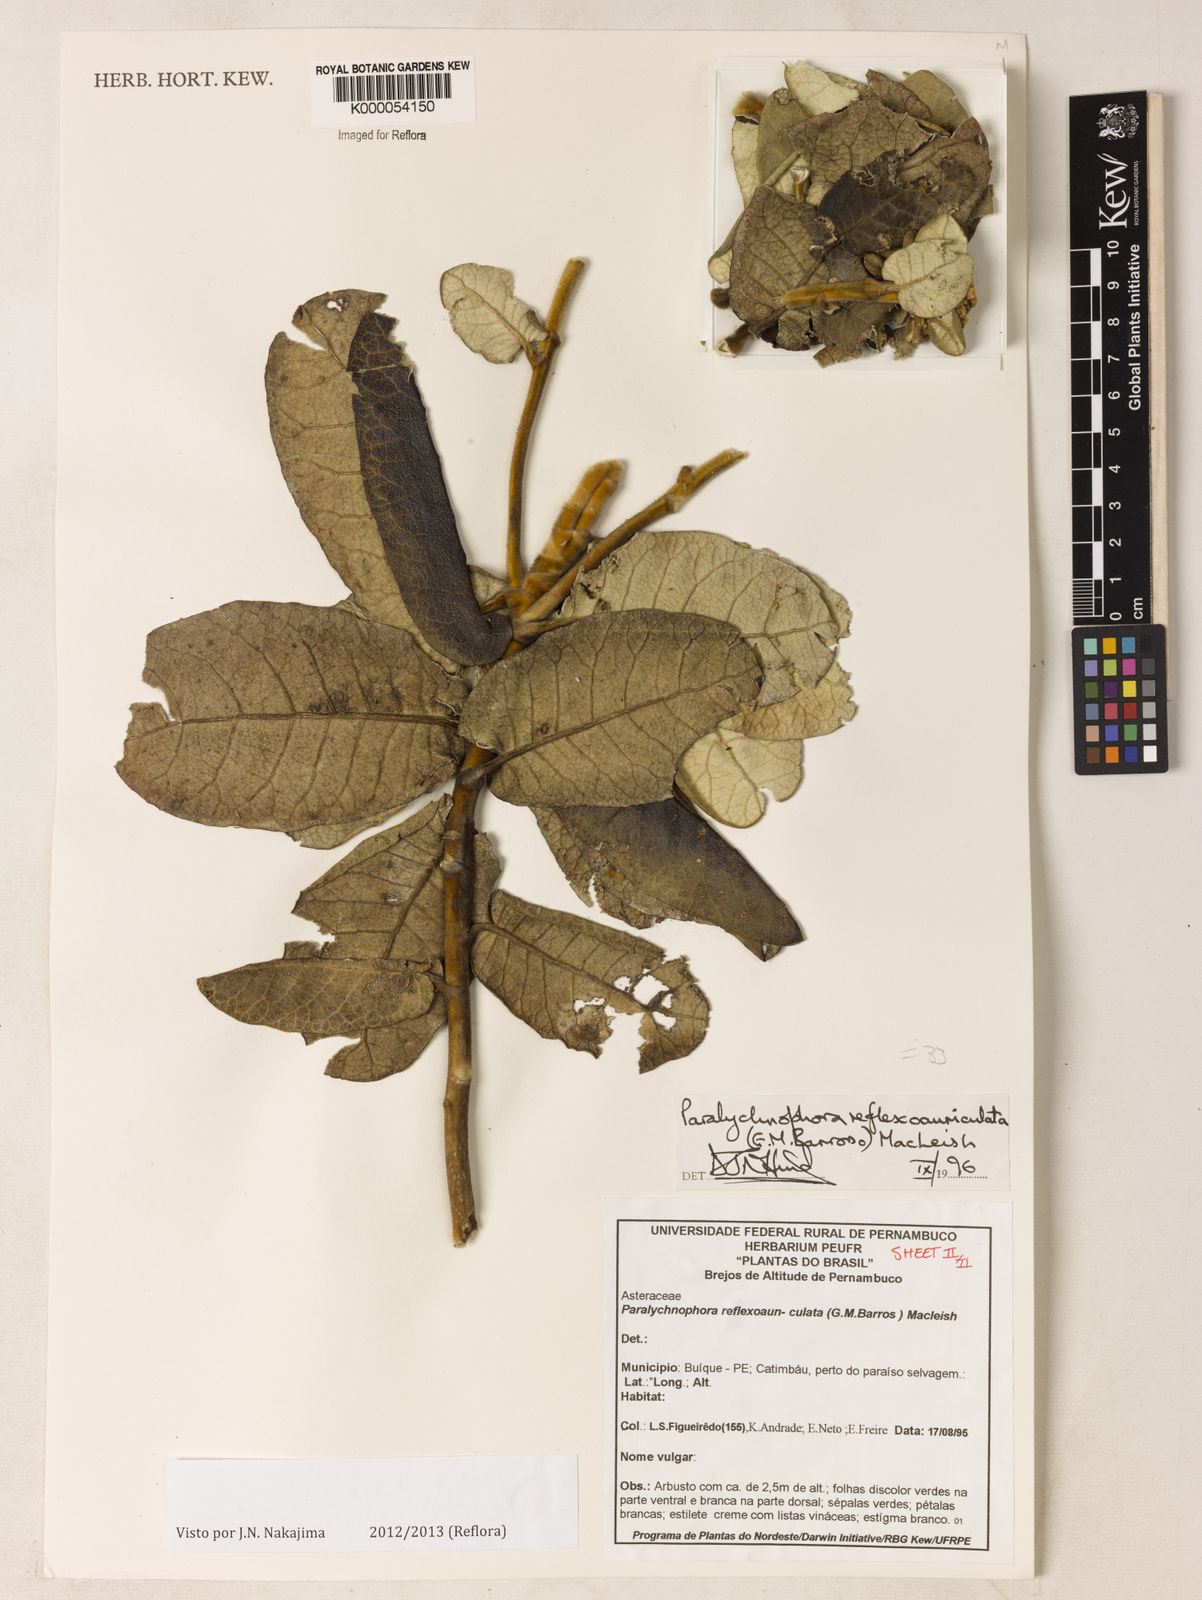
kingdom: Plantae
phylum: Tracheophyta
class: Magnoliopsida
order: Asterales
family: Asteraceae
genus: Paralychnophora
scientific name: Paralychnophora reflexoauriculata
